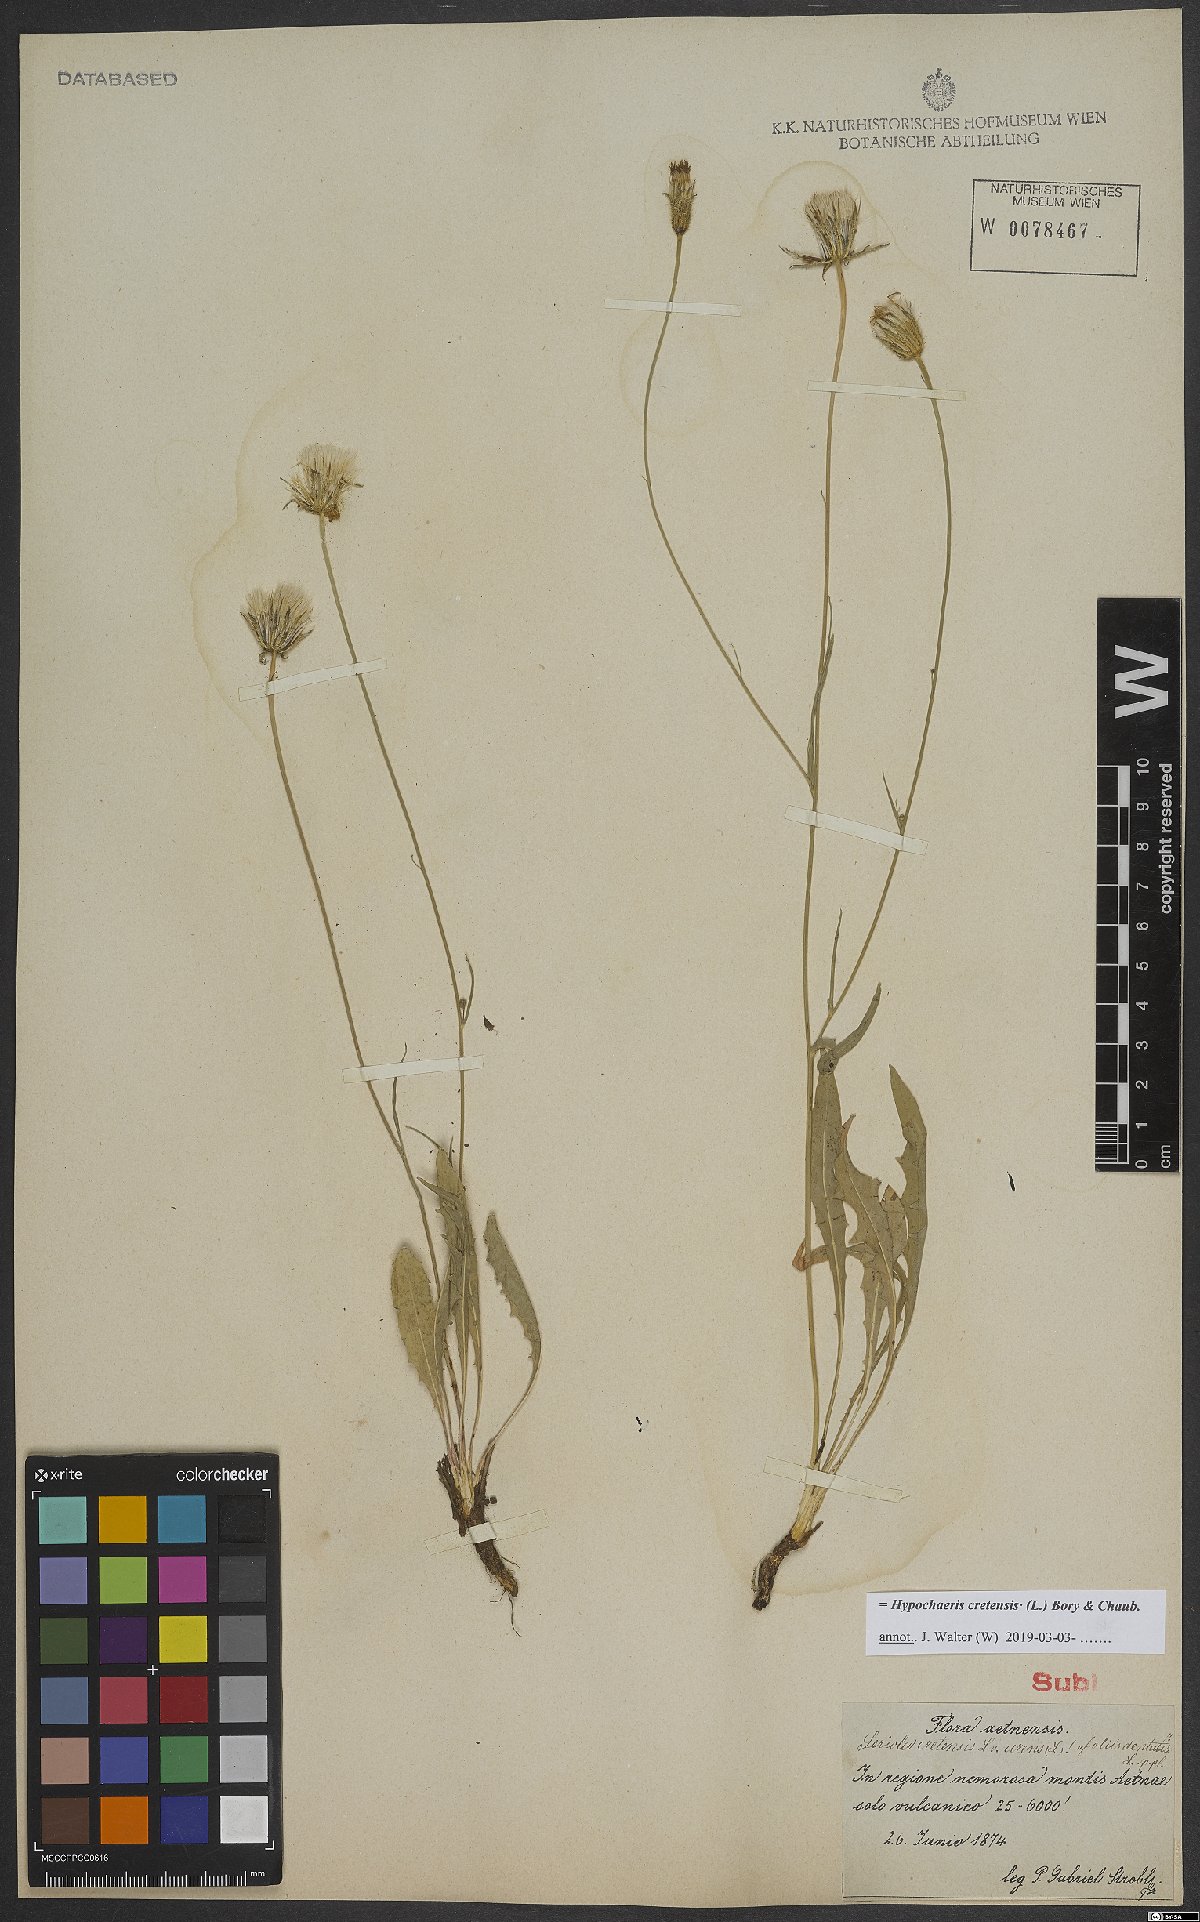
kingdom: Plantae
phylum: Tracheophyta
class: Magnoliopsida
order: Asterales
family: Asteraceae
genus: Hypochaeris
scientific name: Hypochaeris cretensis
